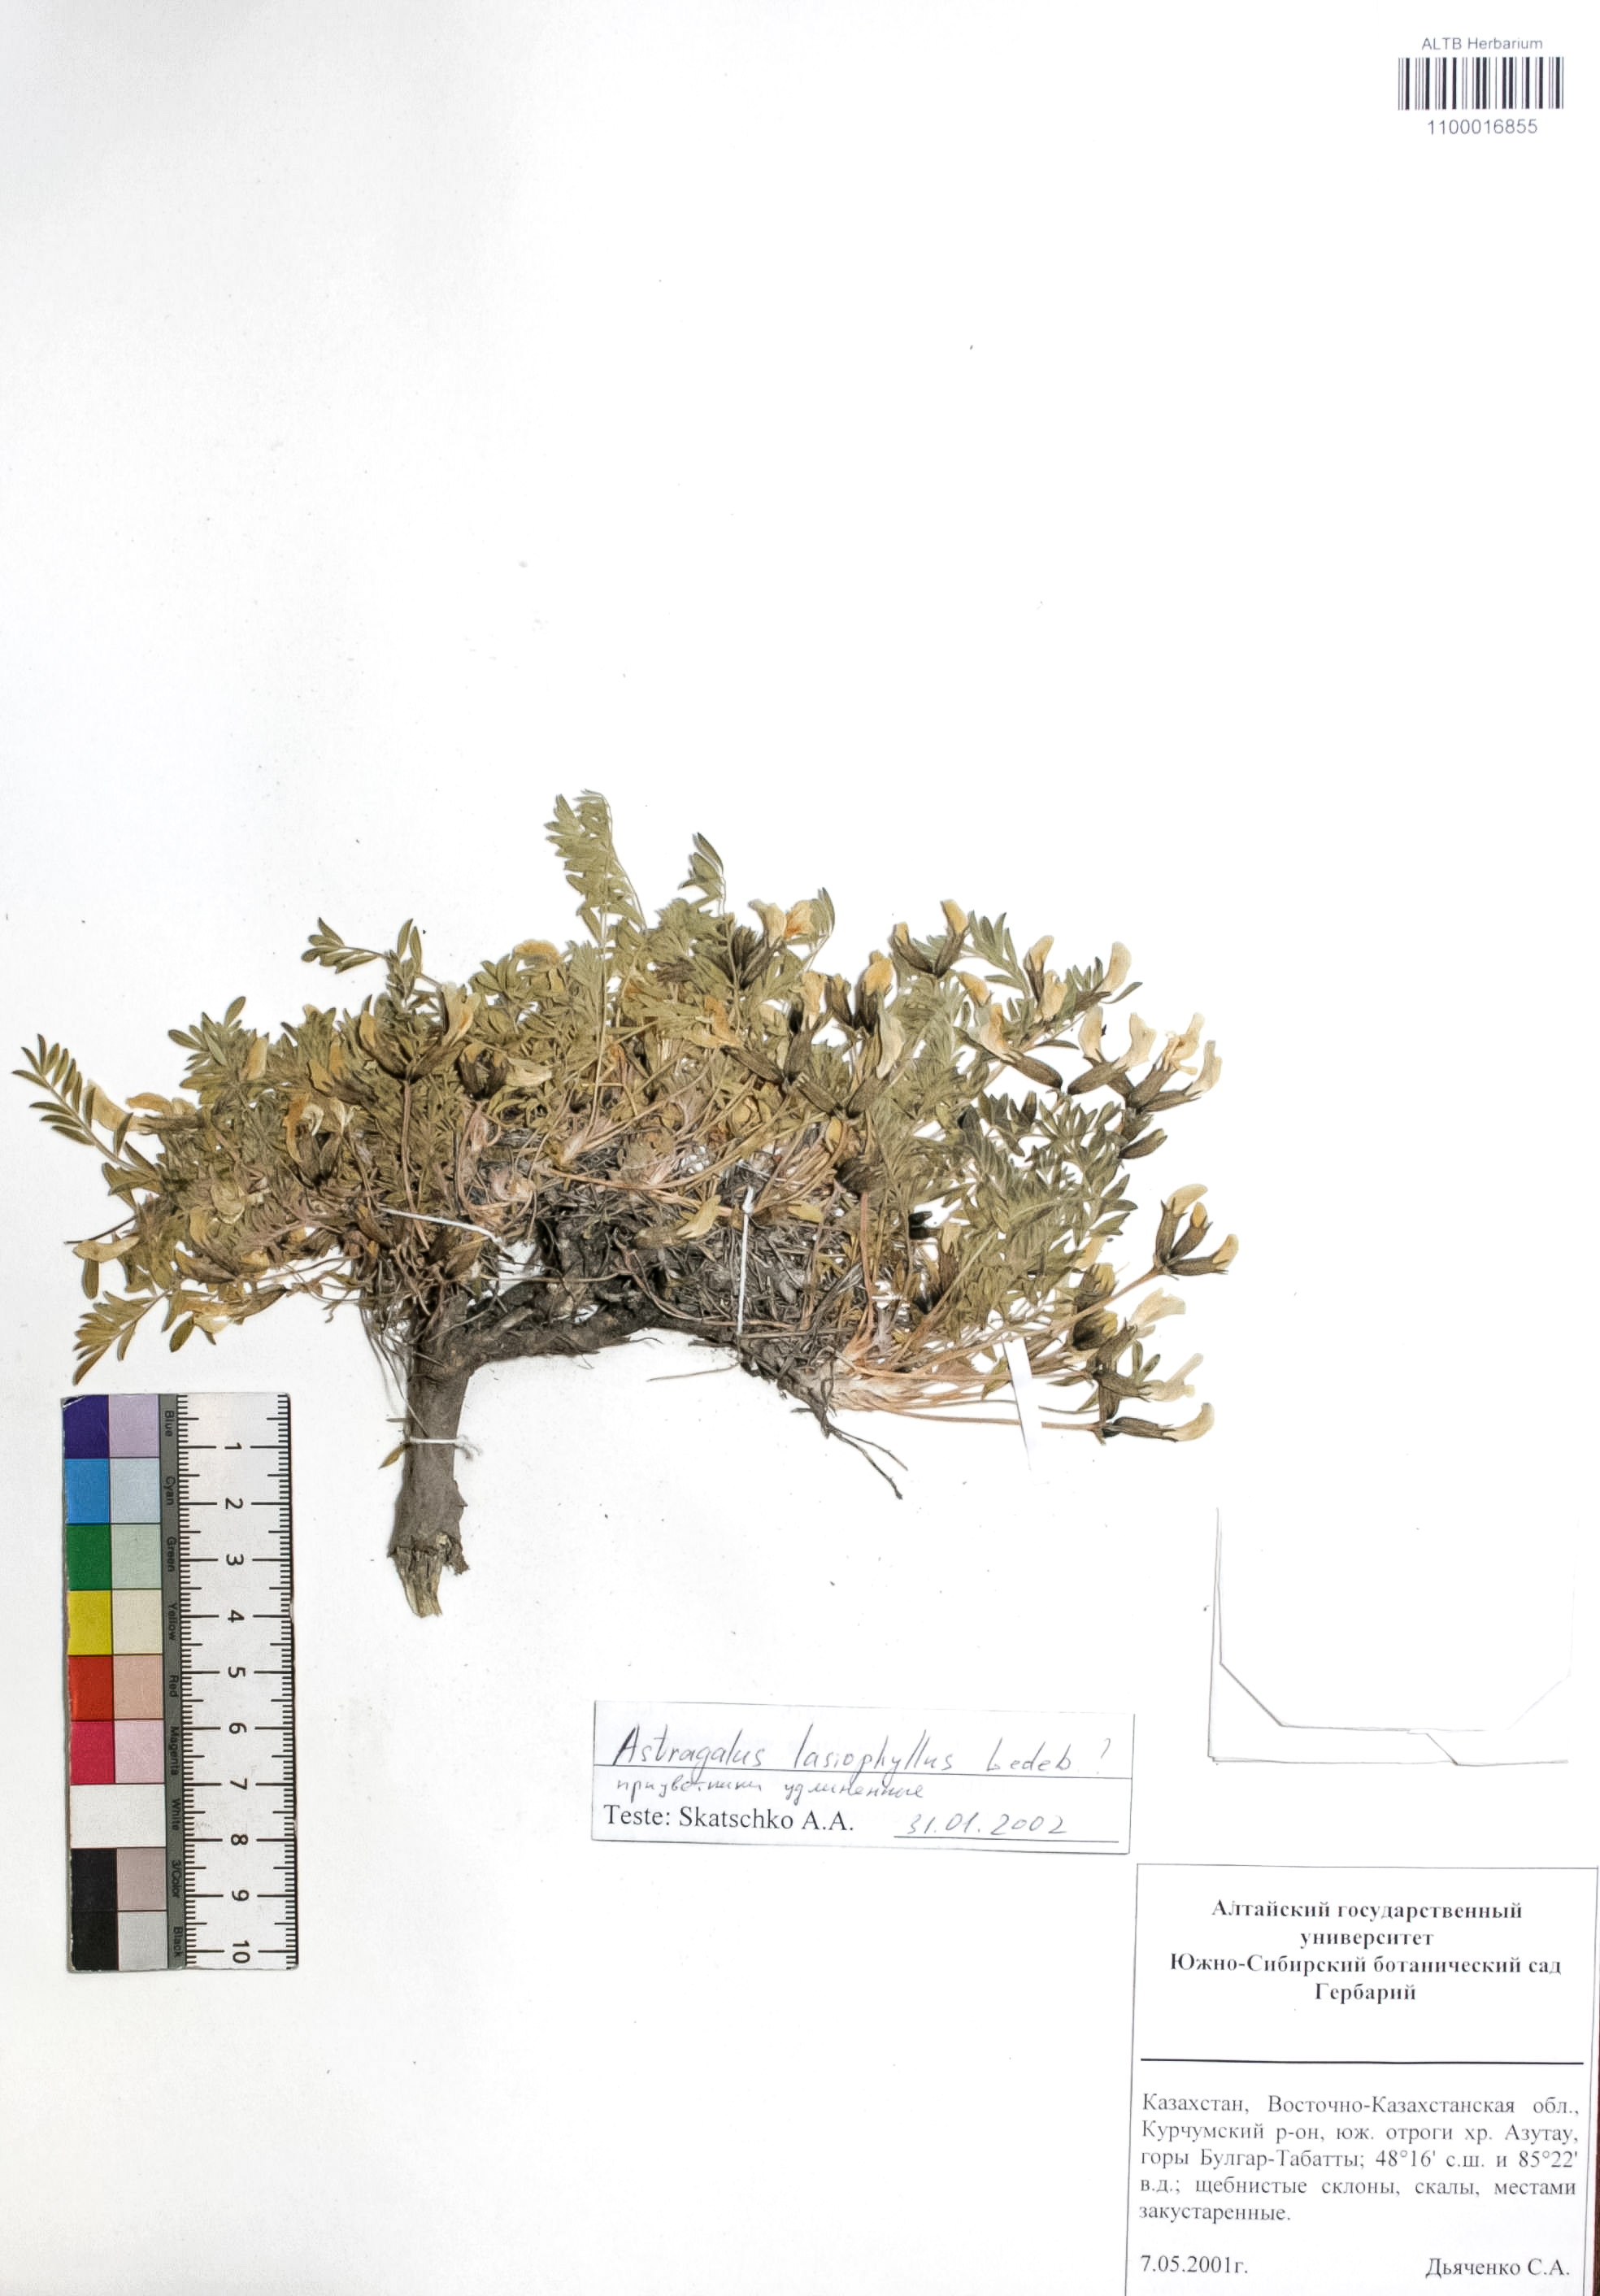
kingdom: Plantae
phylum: Tracheophyta
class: Magnoliopsida
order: Fabales
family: Fabaceae
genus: Astragalus
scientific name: Astragalus pallasii
